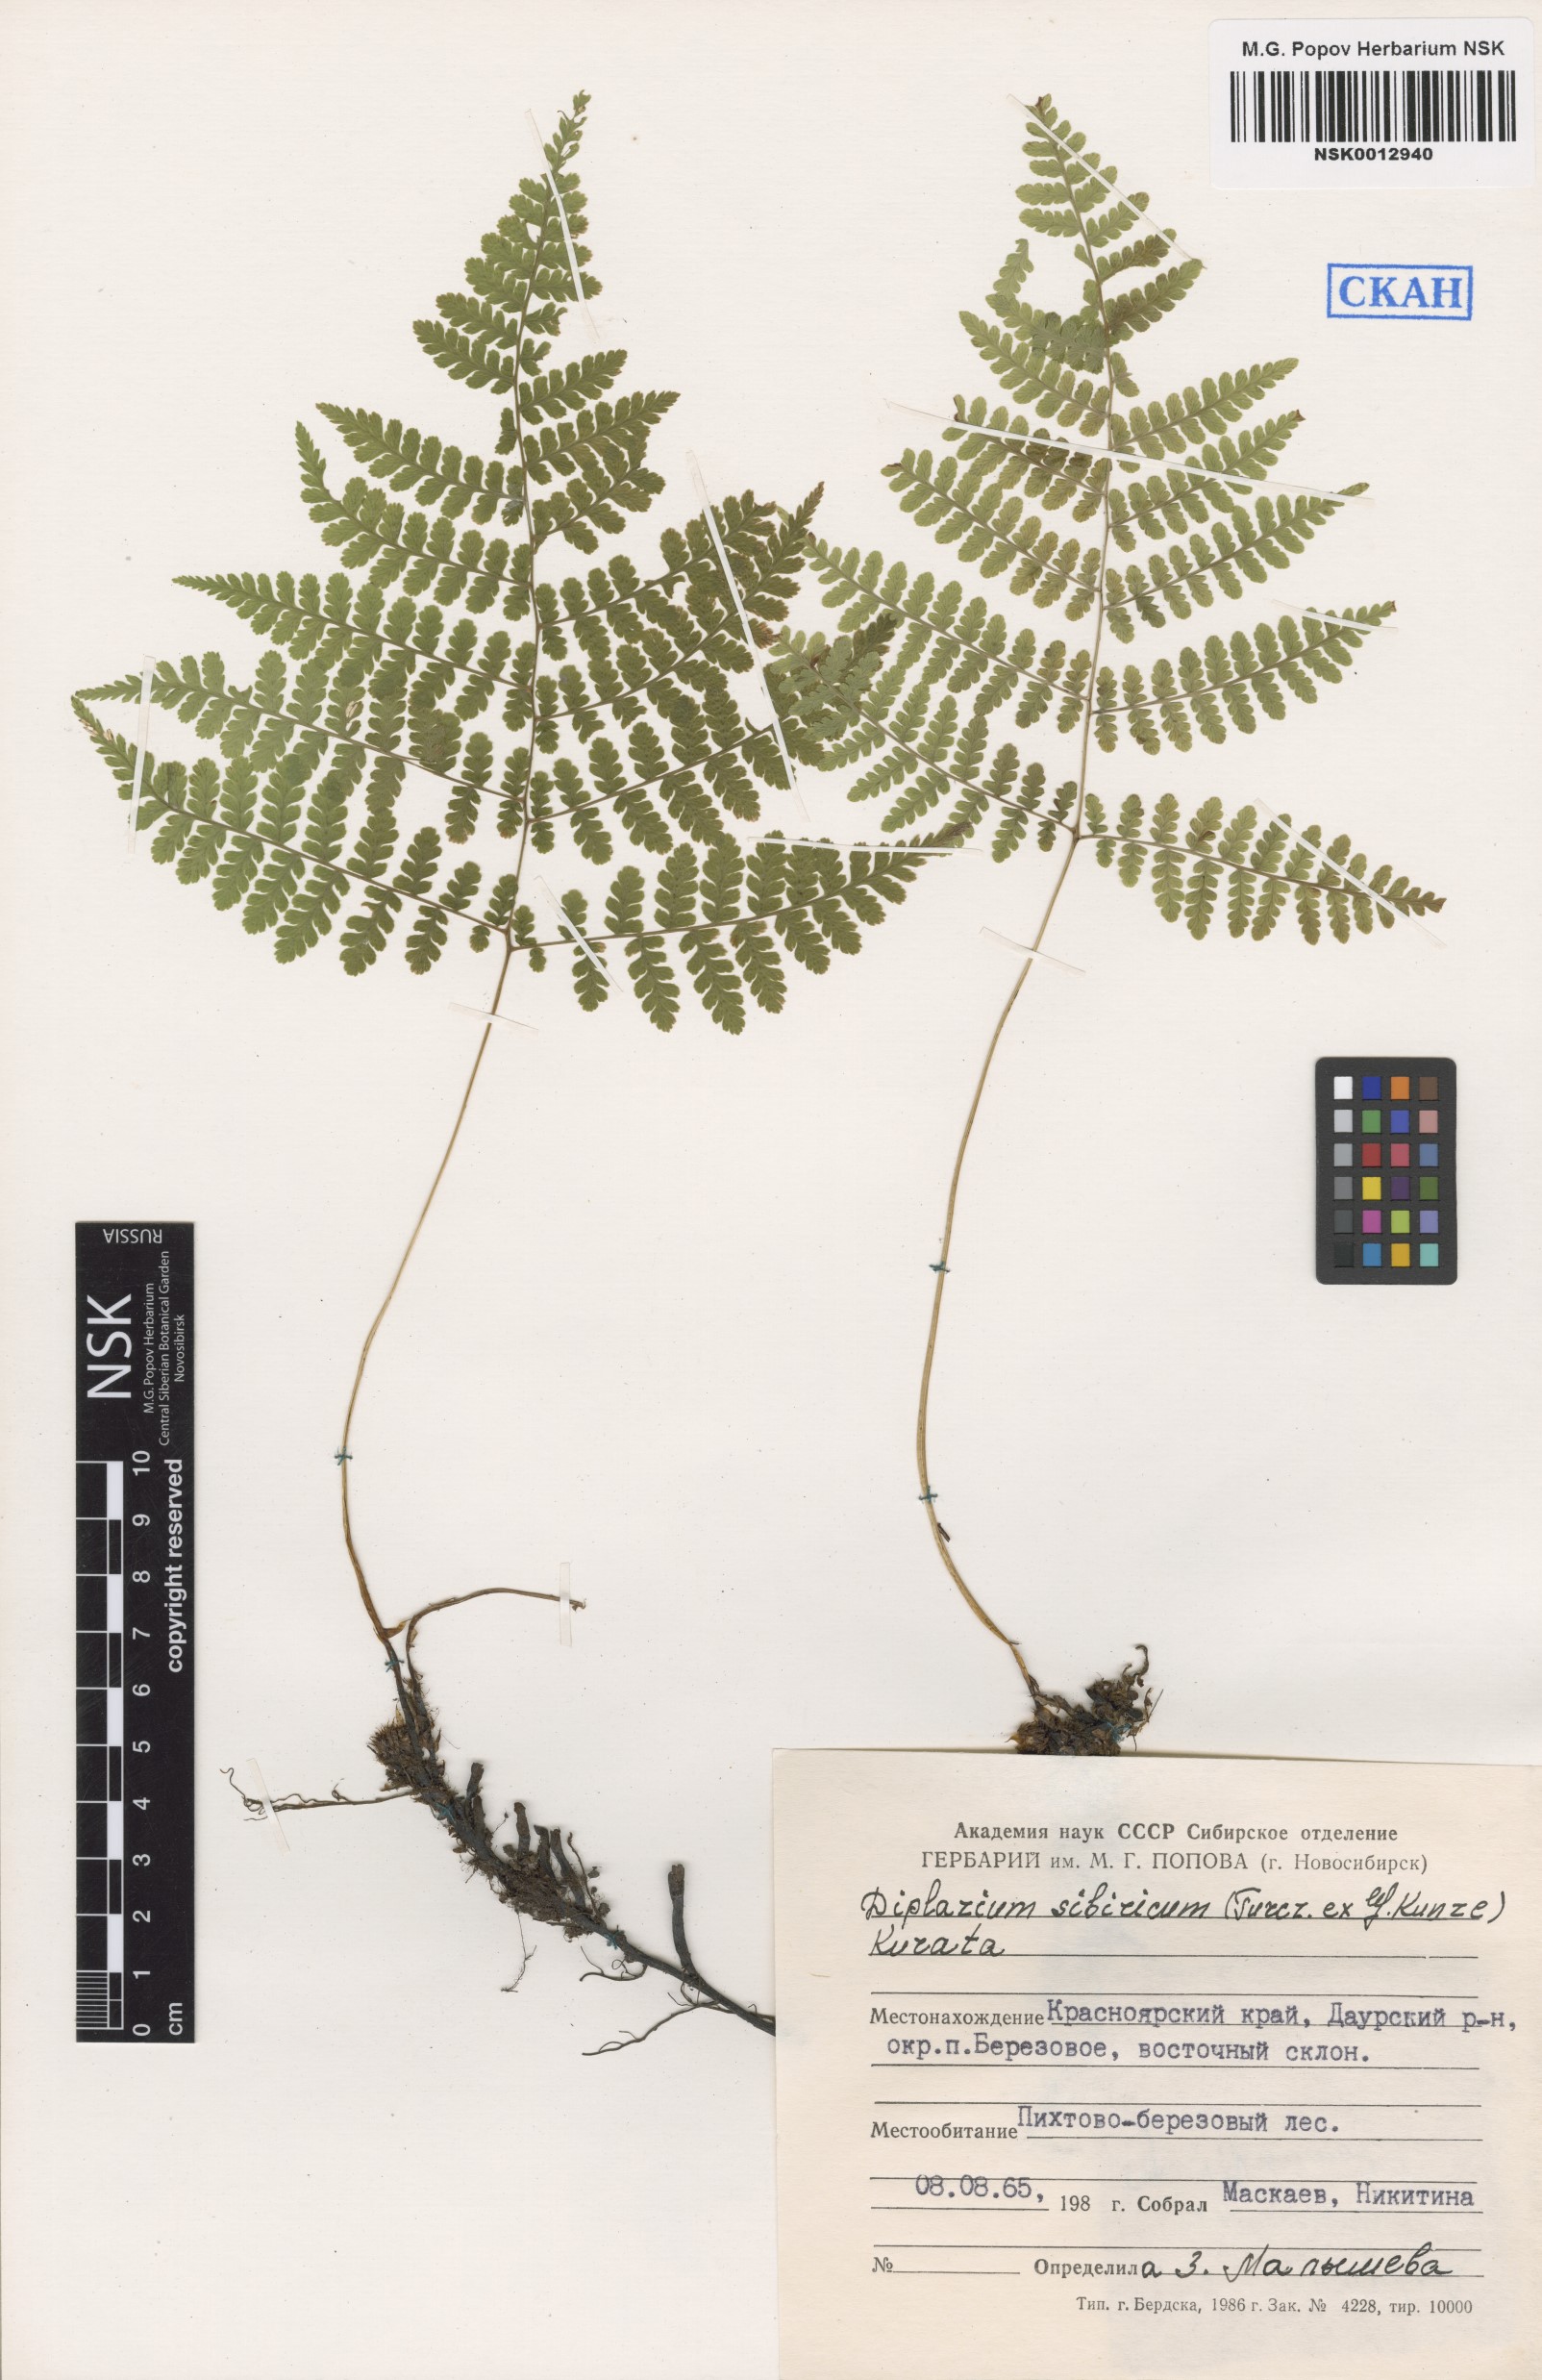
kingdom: Plantae
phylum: Tracheophyta
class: Polypodiopsida
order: Polypodiales
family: Athyriaceae
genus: Diplazium
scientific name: Diplazium sibiricum
